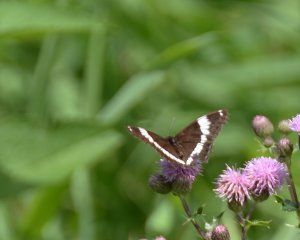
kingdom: Animalia
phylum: Arthropoda
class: Insecta
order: Lepidoptera
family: Nymphalidae
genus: Limenitis
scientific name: Limenitis arthemis
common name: Red-spotted Admiral
